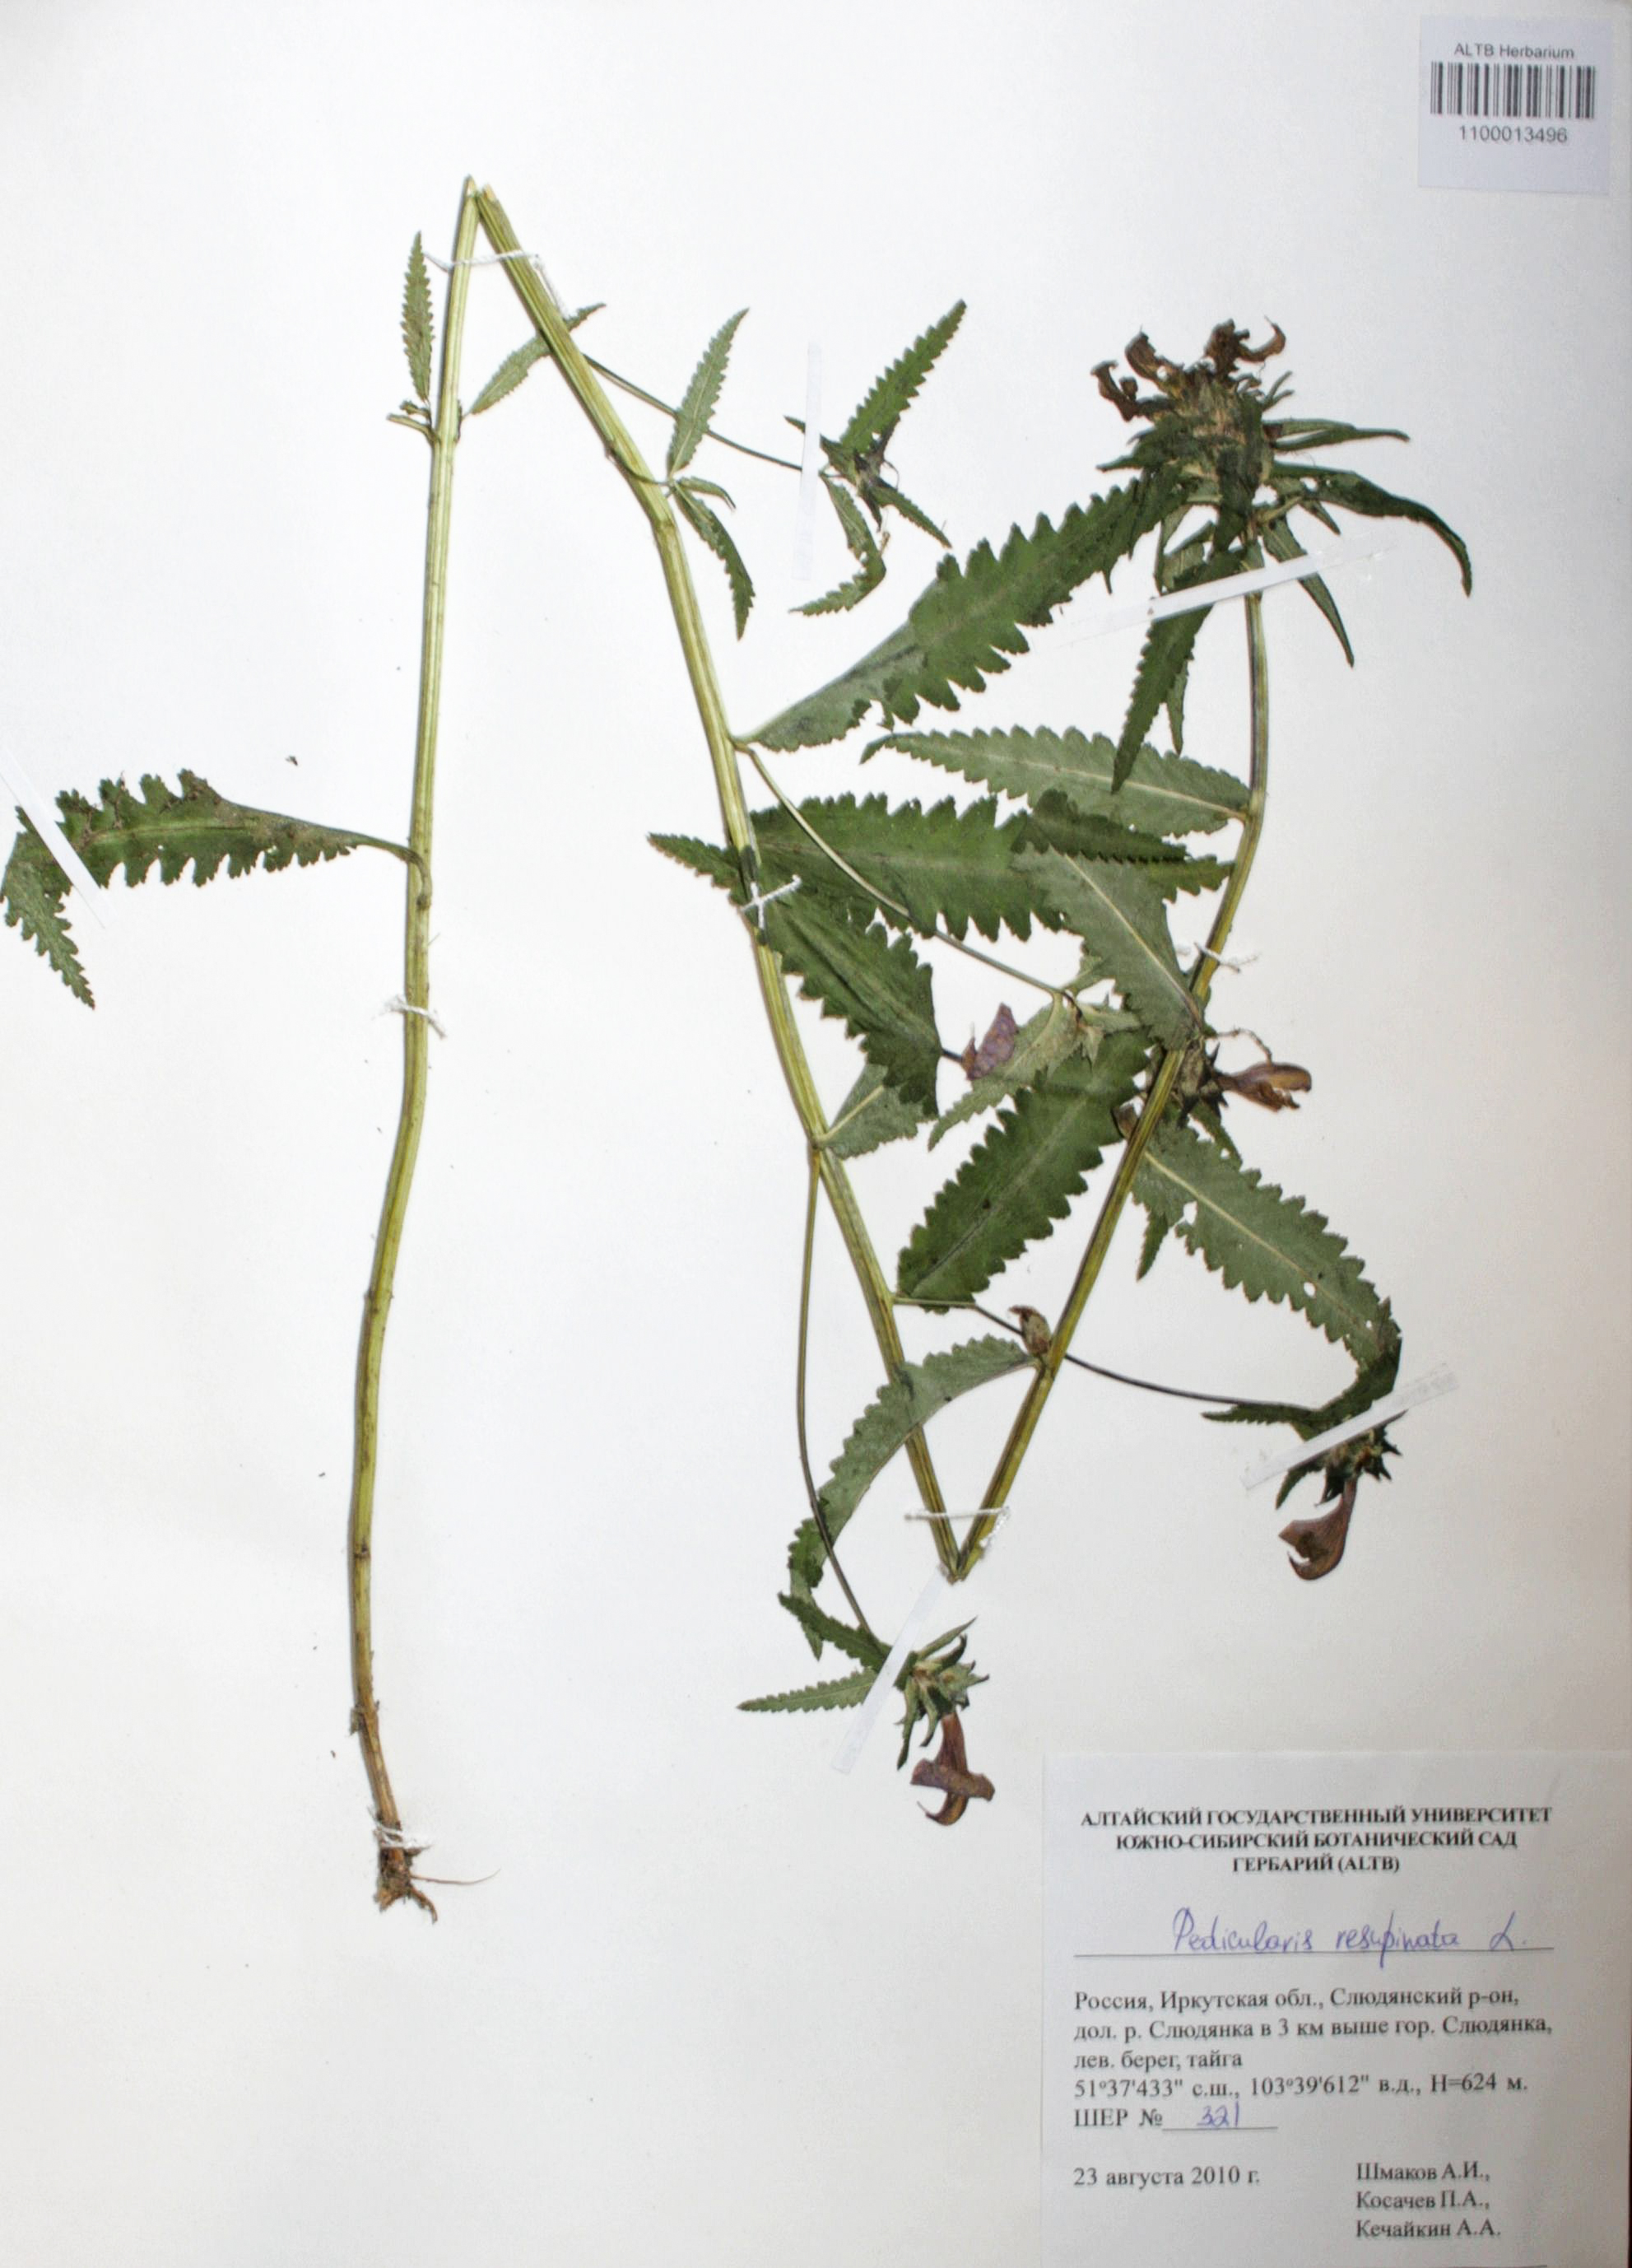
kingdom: Plantae
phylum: Tracheophyta
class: Magnoliopsida
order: Lamiales
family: Orobanchaceae
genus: Pedicularis
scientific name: Pedicularis resupinata
